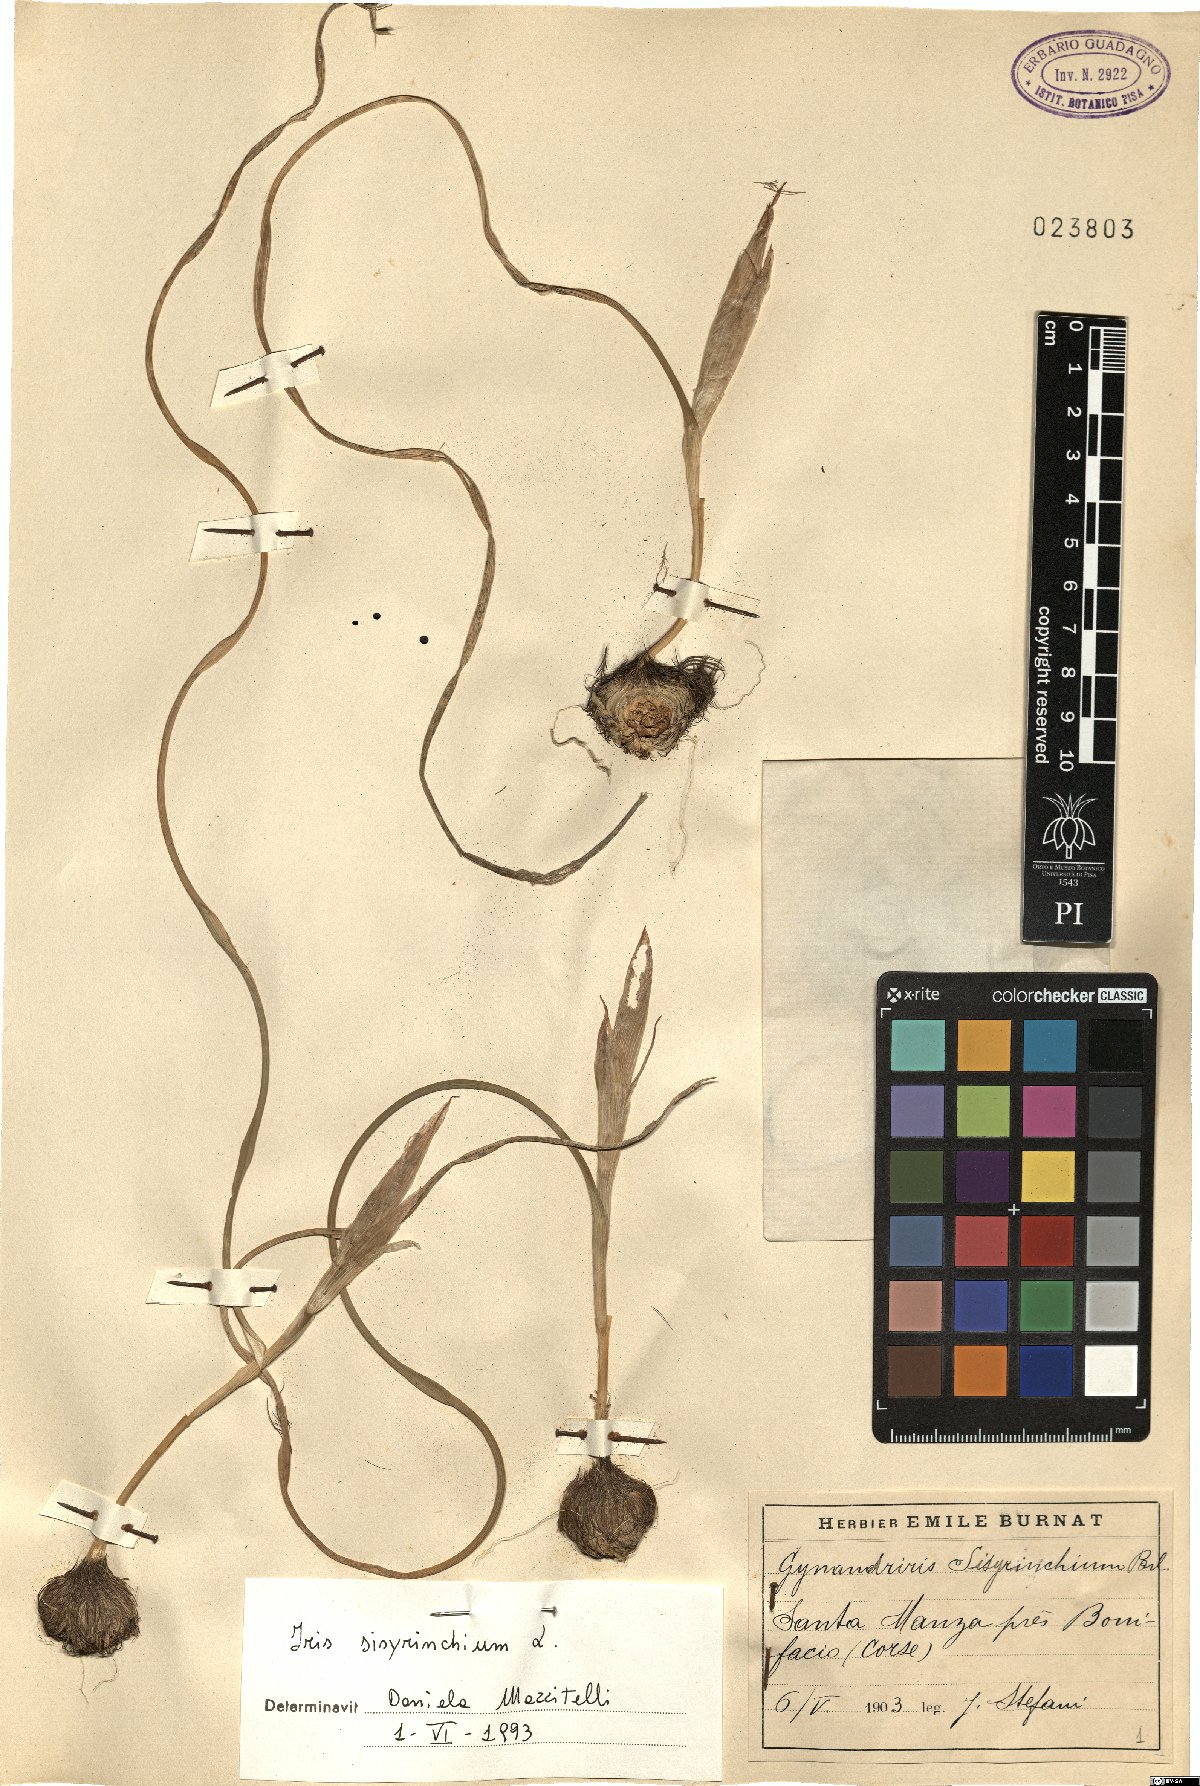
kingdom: Plantae
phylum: Tracheophyta
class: Liliopsida
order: Asparagales
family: Iridaceae
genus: Moraea
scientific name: Moraea sisyrinchium
